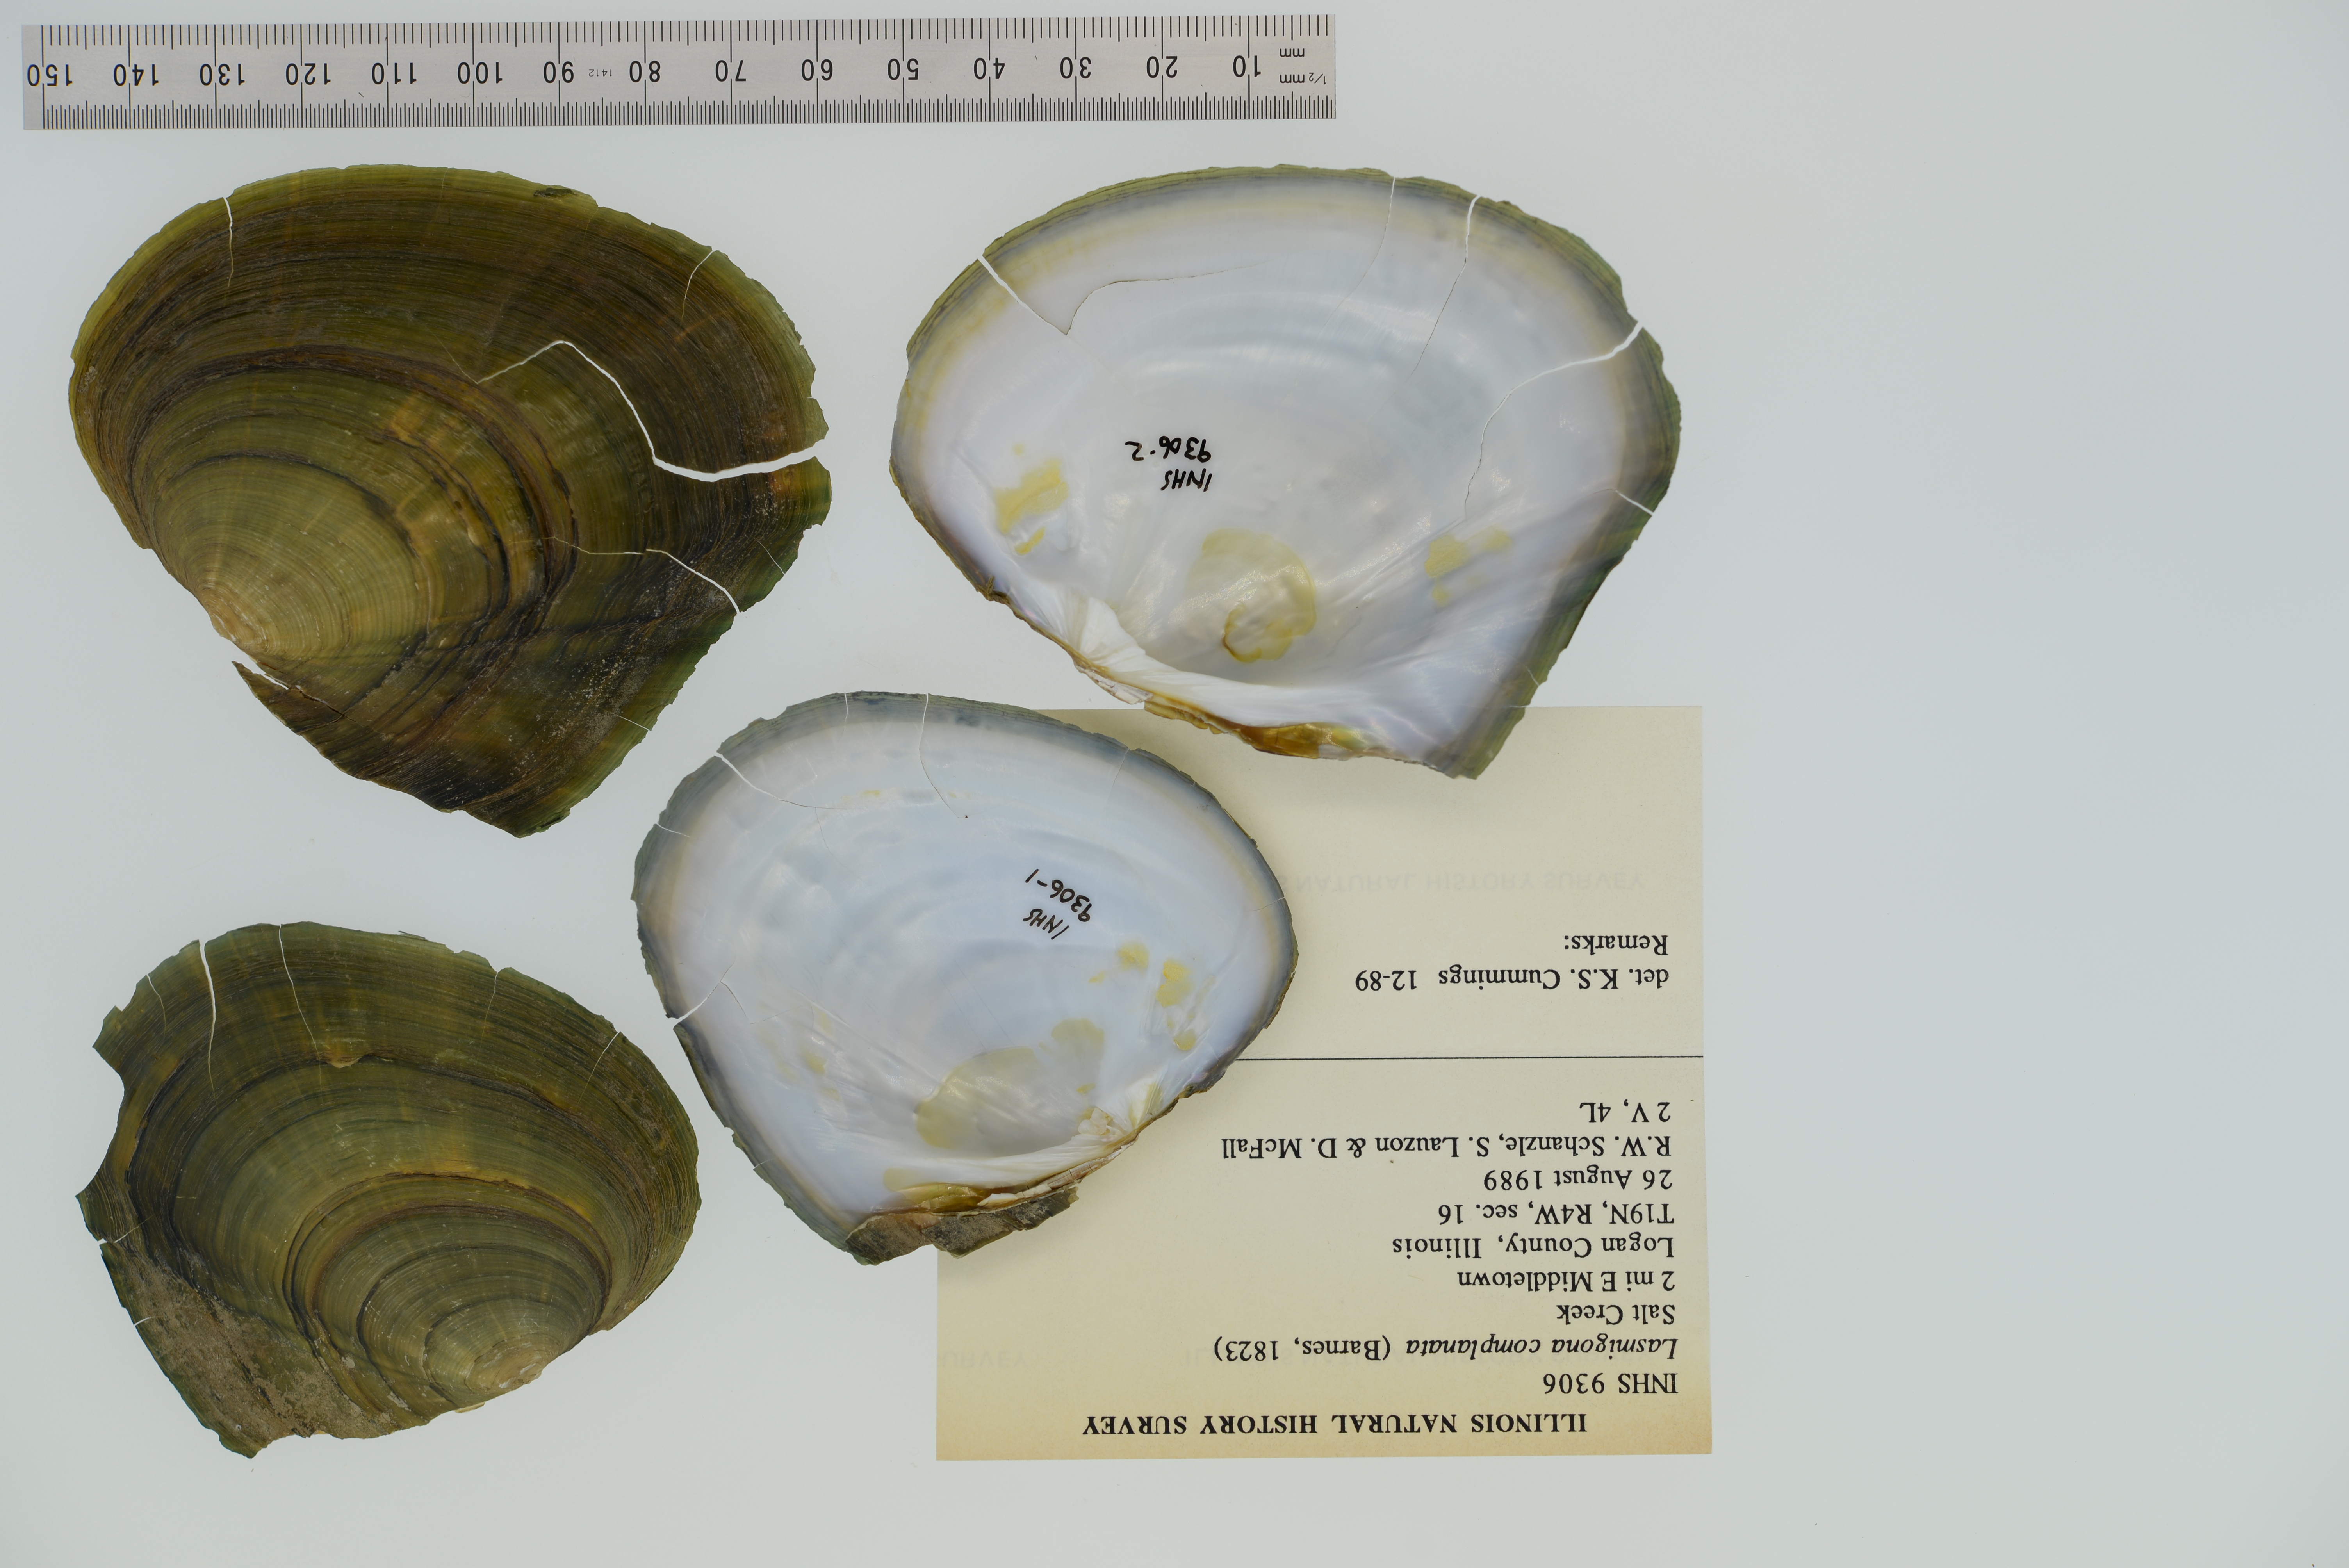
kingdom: Animalia
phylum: Mollusca
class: Bivalvia
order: Unionida
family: Unionidae
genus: Lasmigona
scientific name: Lasmigona complanata
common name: White heelsplitter
